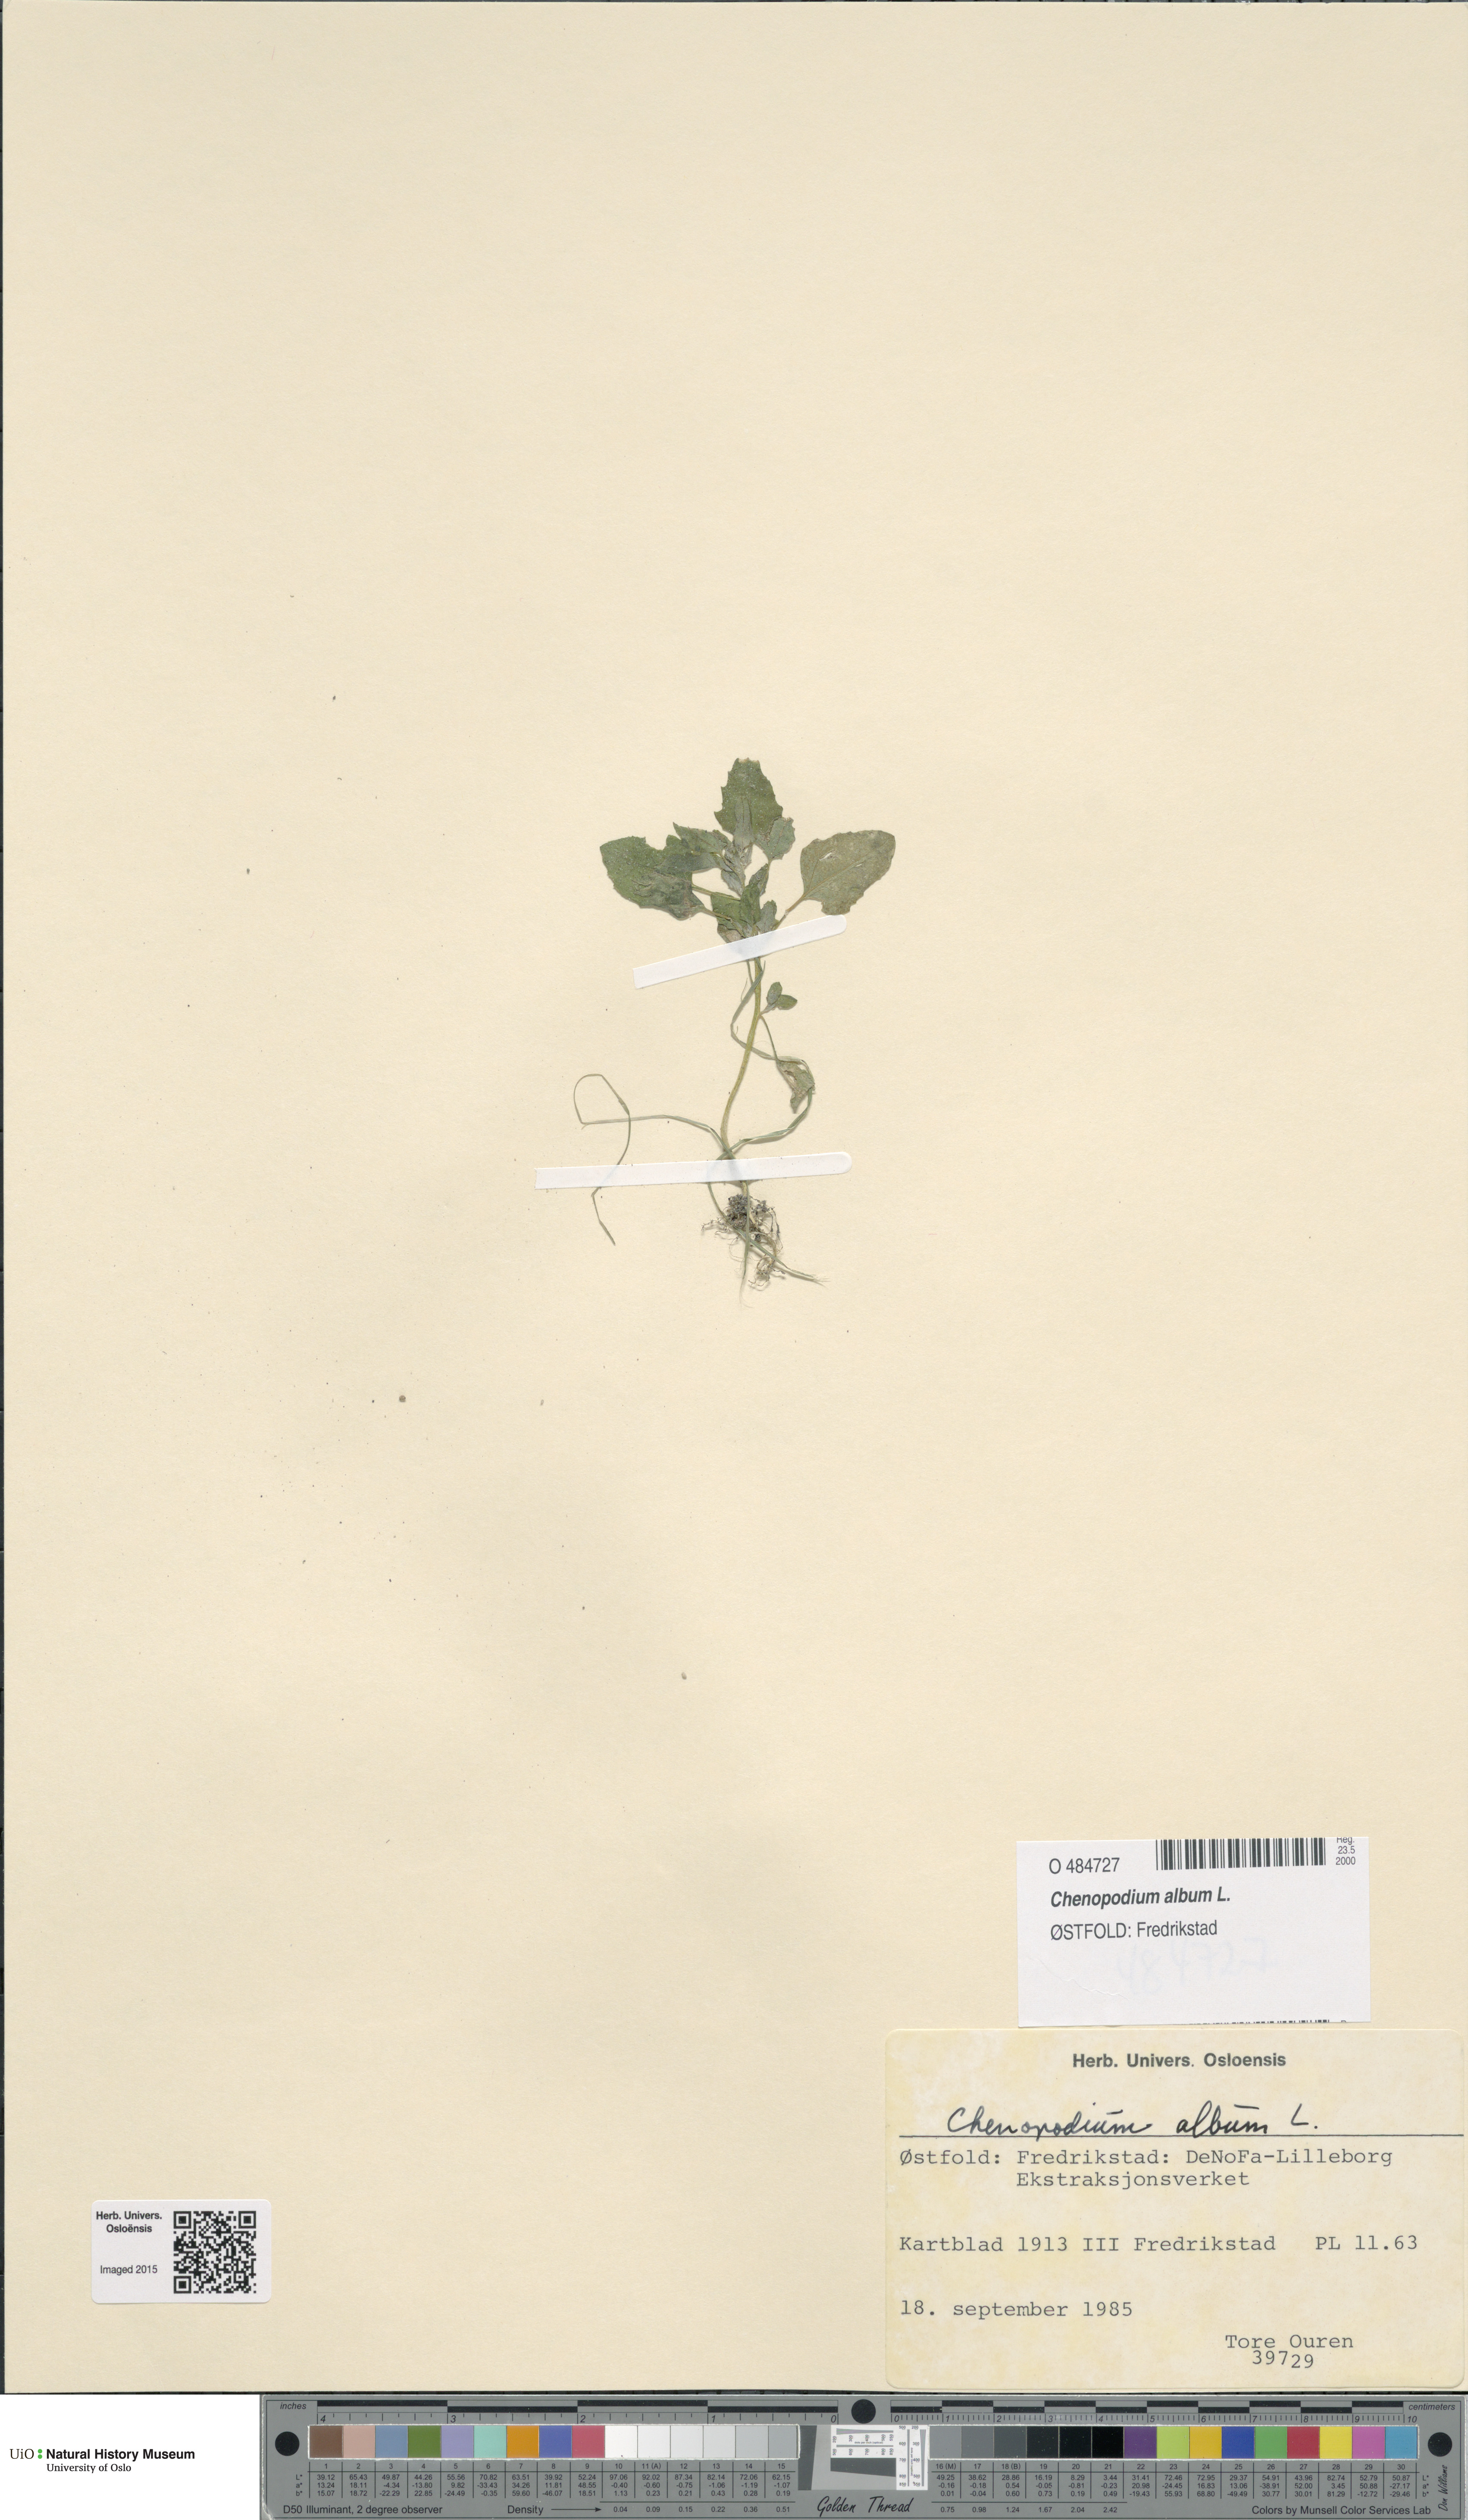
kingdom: Plantae
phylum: Tracheophyta
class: Magnoliopsida
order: Caryophyllales
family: Amaranthaceae
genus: Chenopodium
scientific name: Chenopodium album
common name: Fat-hen
